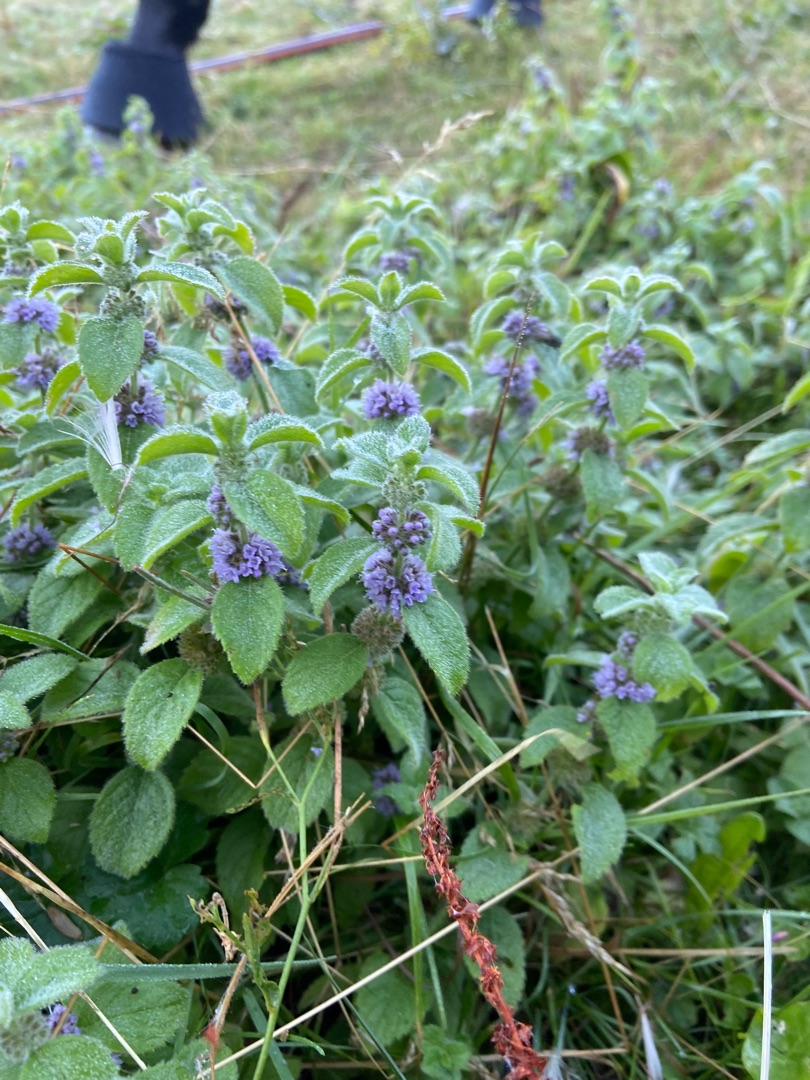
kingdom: Plantae
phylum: Tracheophyta
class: Magnoliopsida
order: Lamiales
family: Lamiaceae
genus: Mentha
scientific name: Mentha arvensis
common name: Ager-mynte
